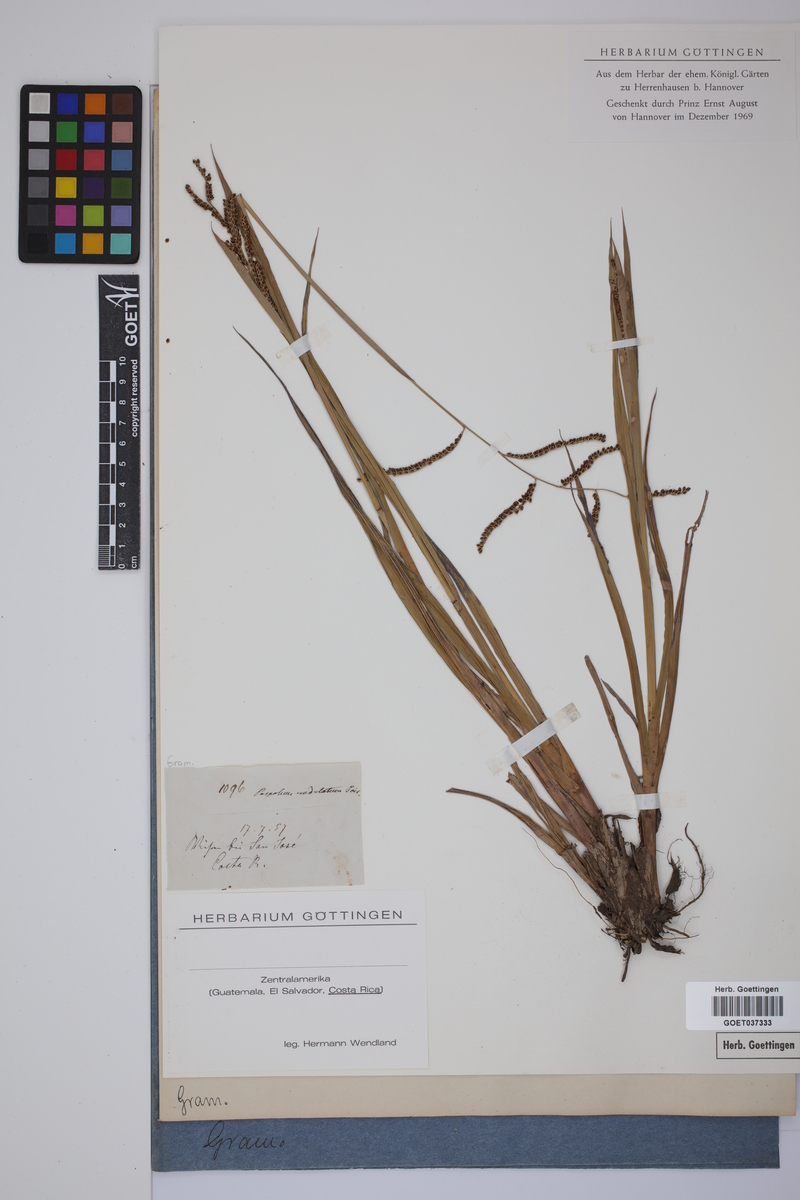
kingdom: Plantae
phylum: Tracheophyta
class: Liliopsida
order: Poales
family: Poaceae
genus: Paspalum
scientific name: Paspalum plicatulum
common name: Top paspalum
